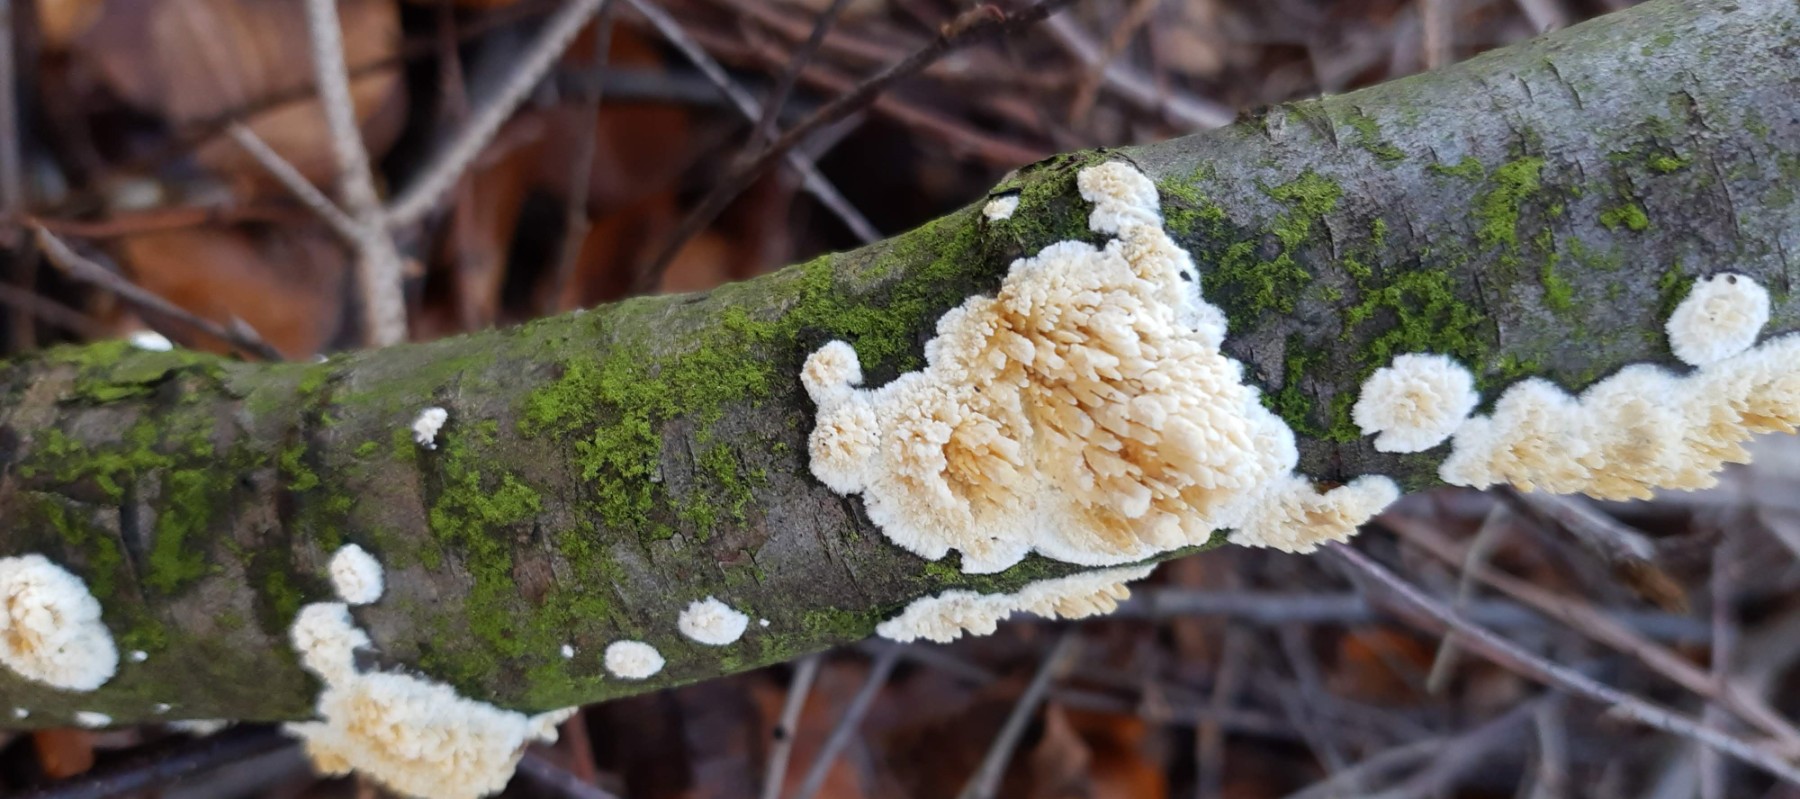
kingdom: Fungi
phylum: Basidiomycota
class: Agaricomycetes
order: Hymenochaetales
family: Schizoporaceae
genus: Xylodon
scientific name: Xylodon radula
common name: grovtandet kalkskind
